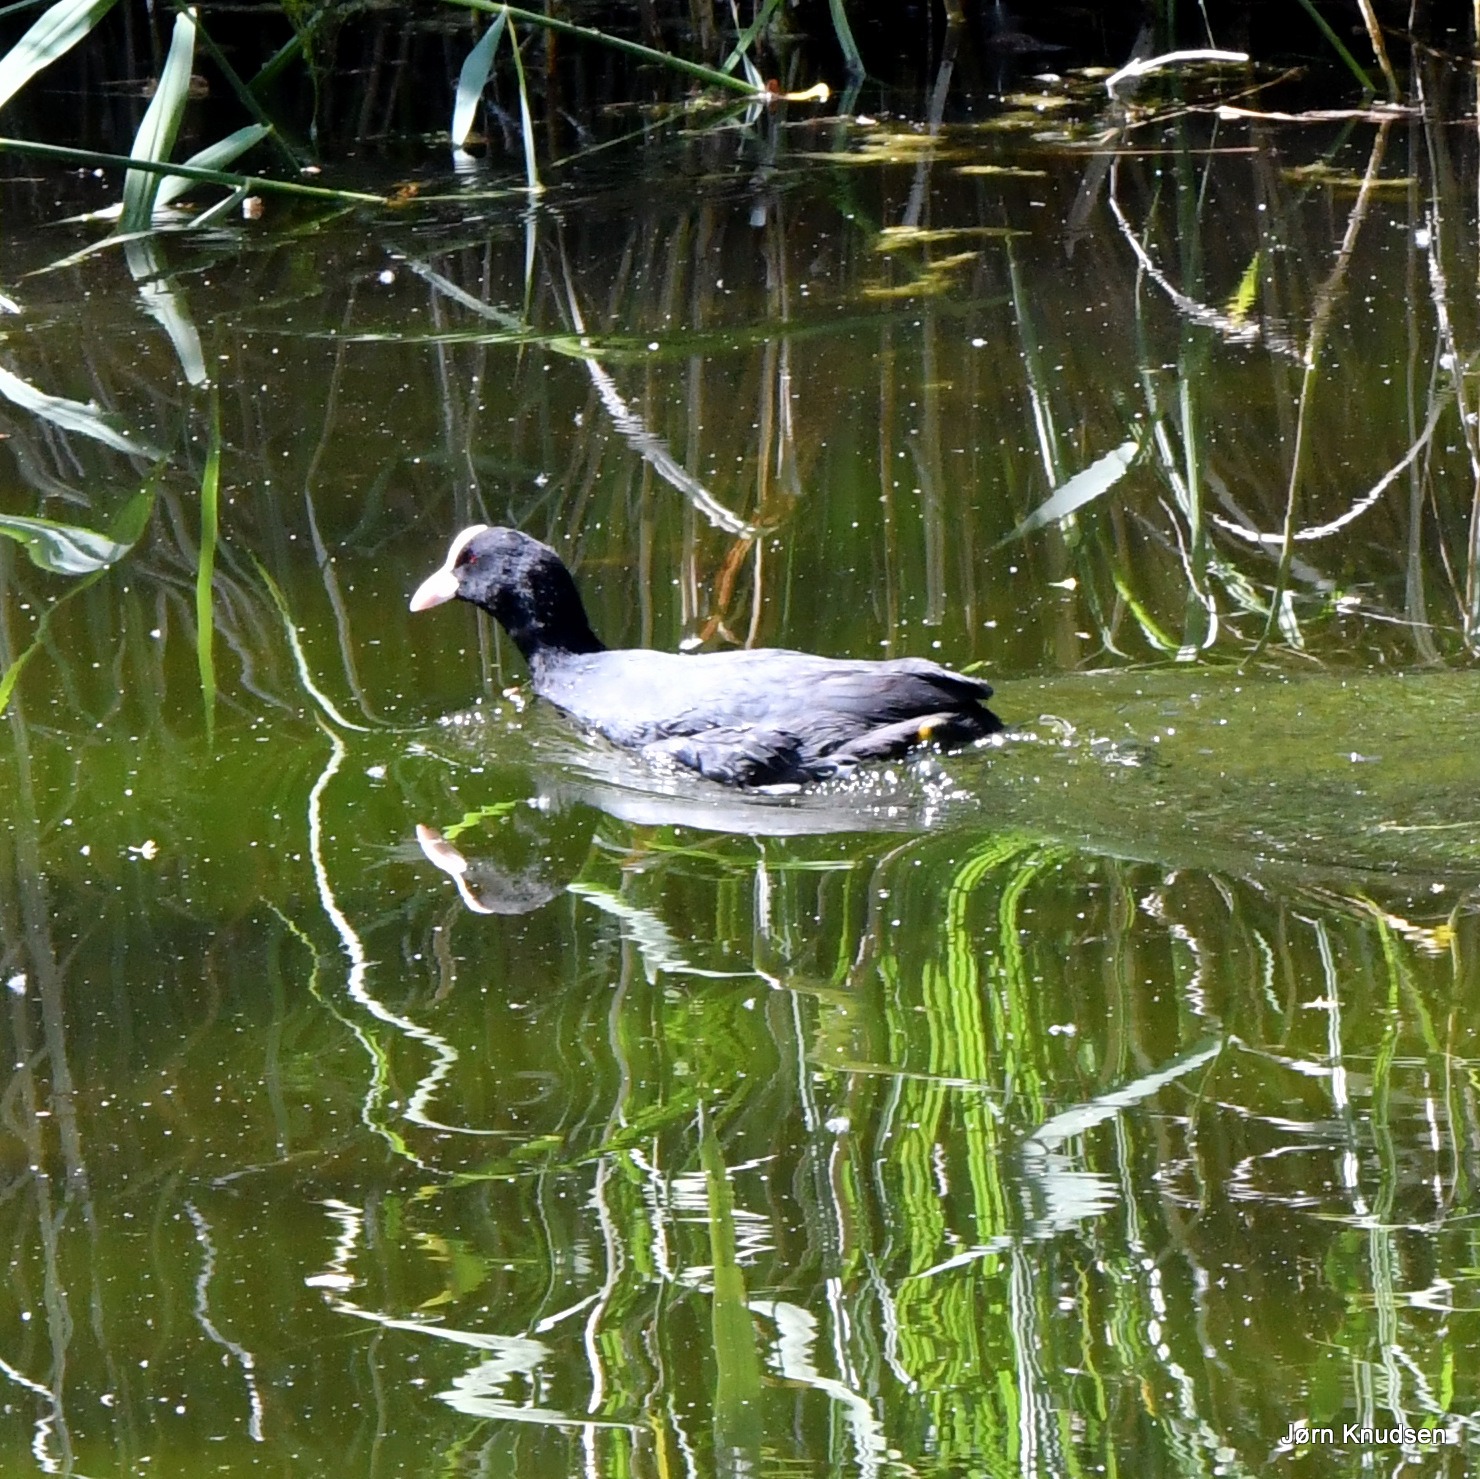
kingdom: Animalia
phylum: Chordata
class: Aves
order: Gruiformes
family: Rallidae
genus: Fulica
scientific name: Fulica atra
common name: Blishøne
